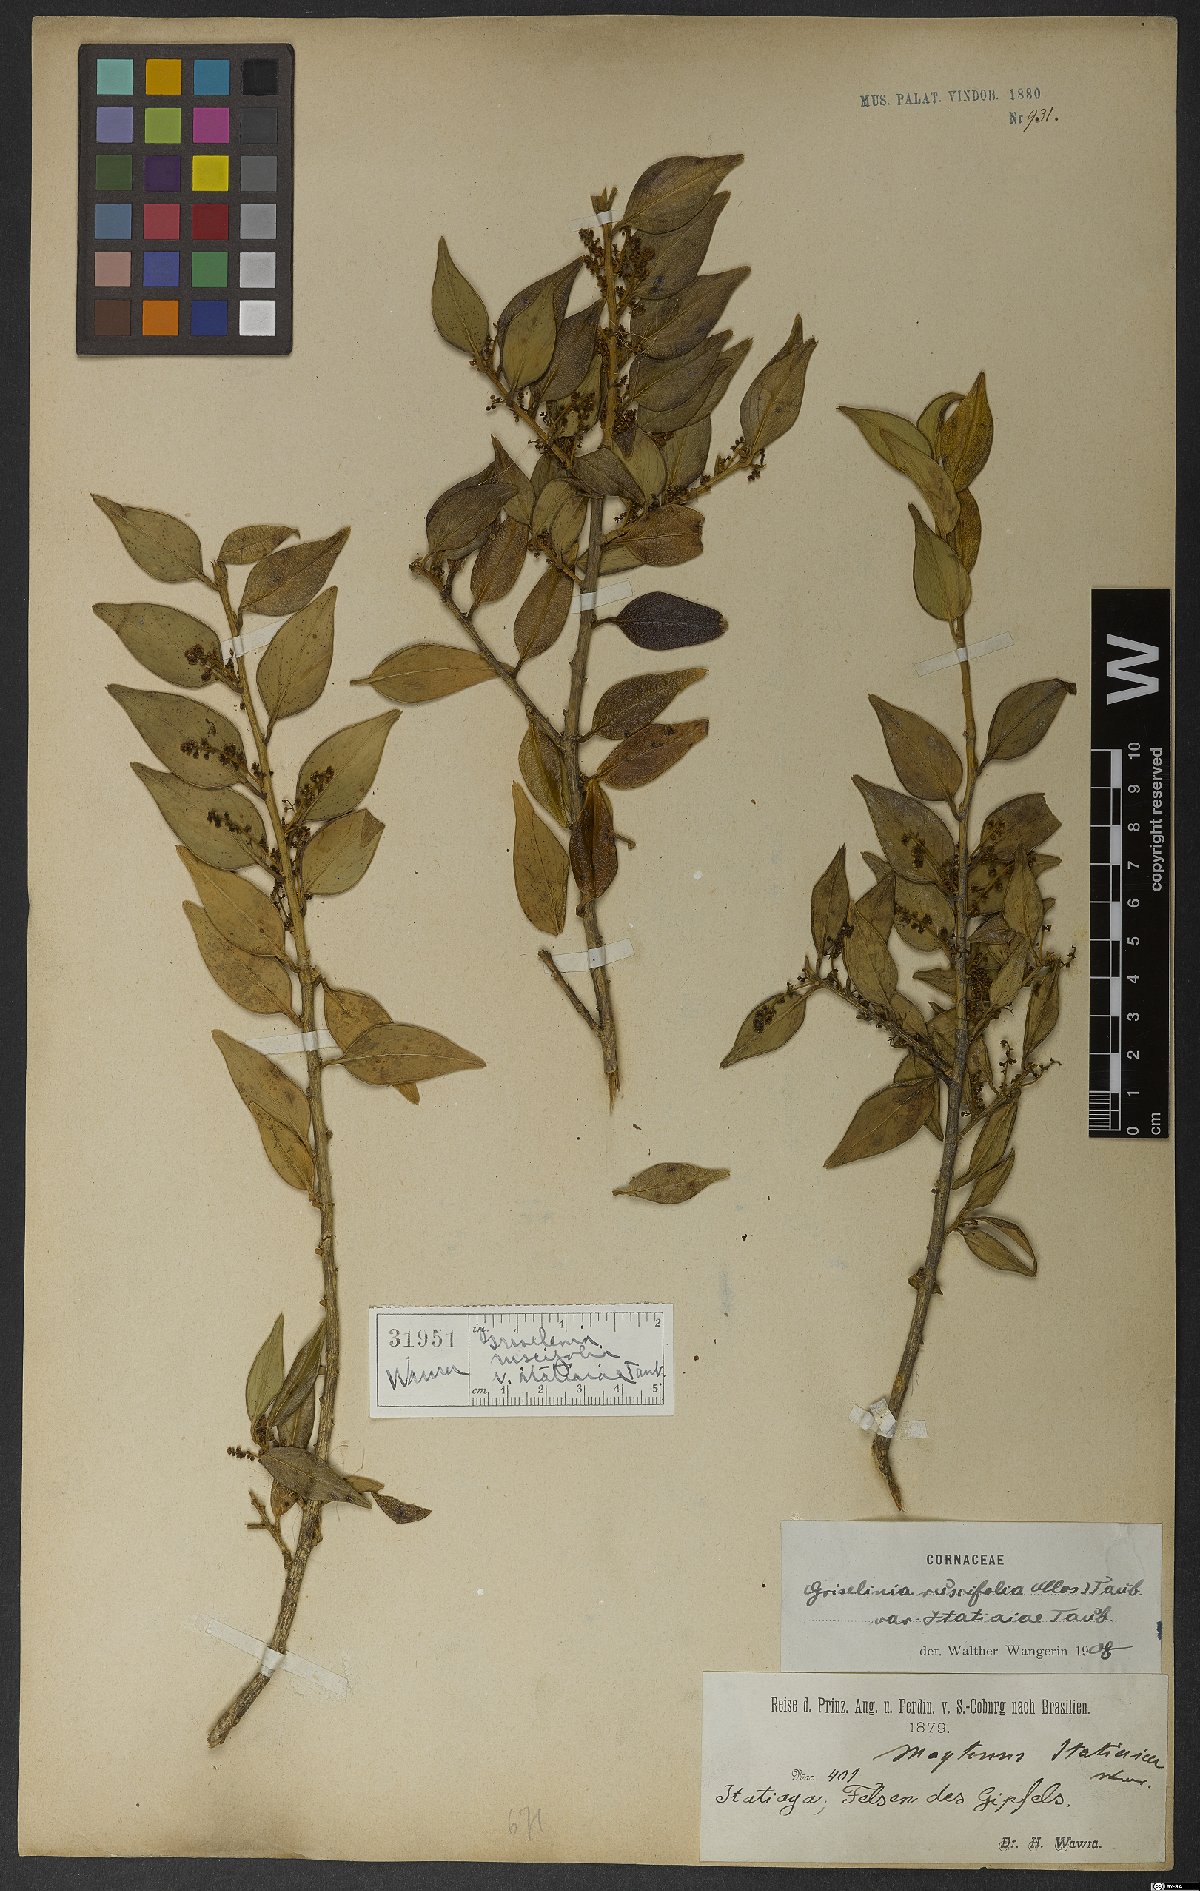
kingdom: Plantae
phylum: Tracheophyta
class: Magnoliopsida
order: Apiales
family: Griseliniaceae
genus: Griselinia
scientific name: Griselinia ruscifolia
